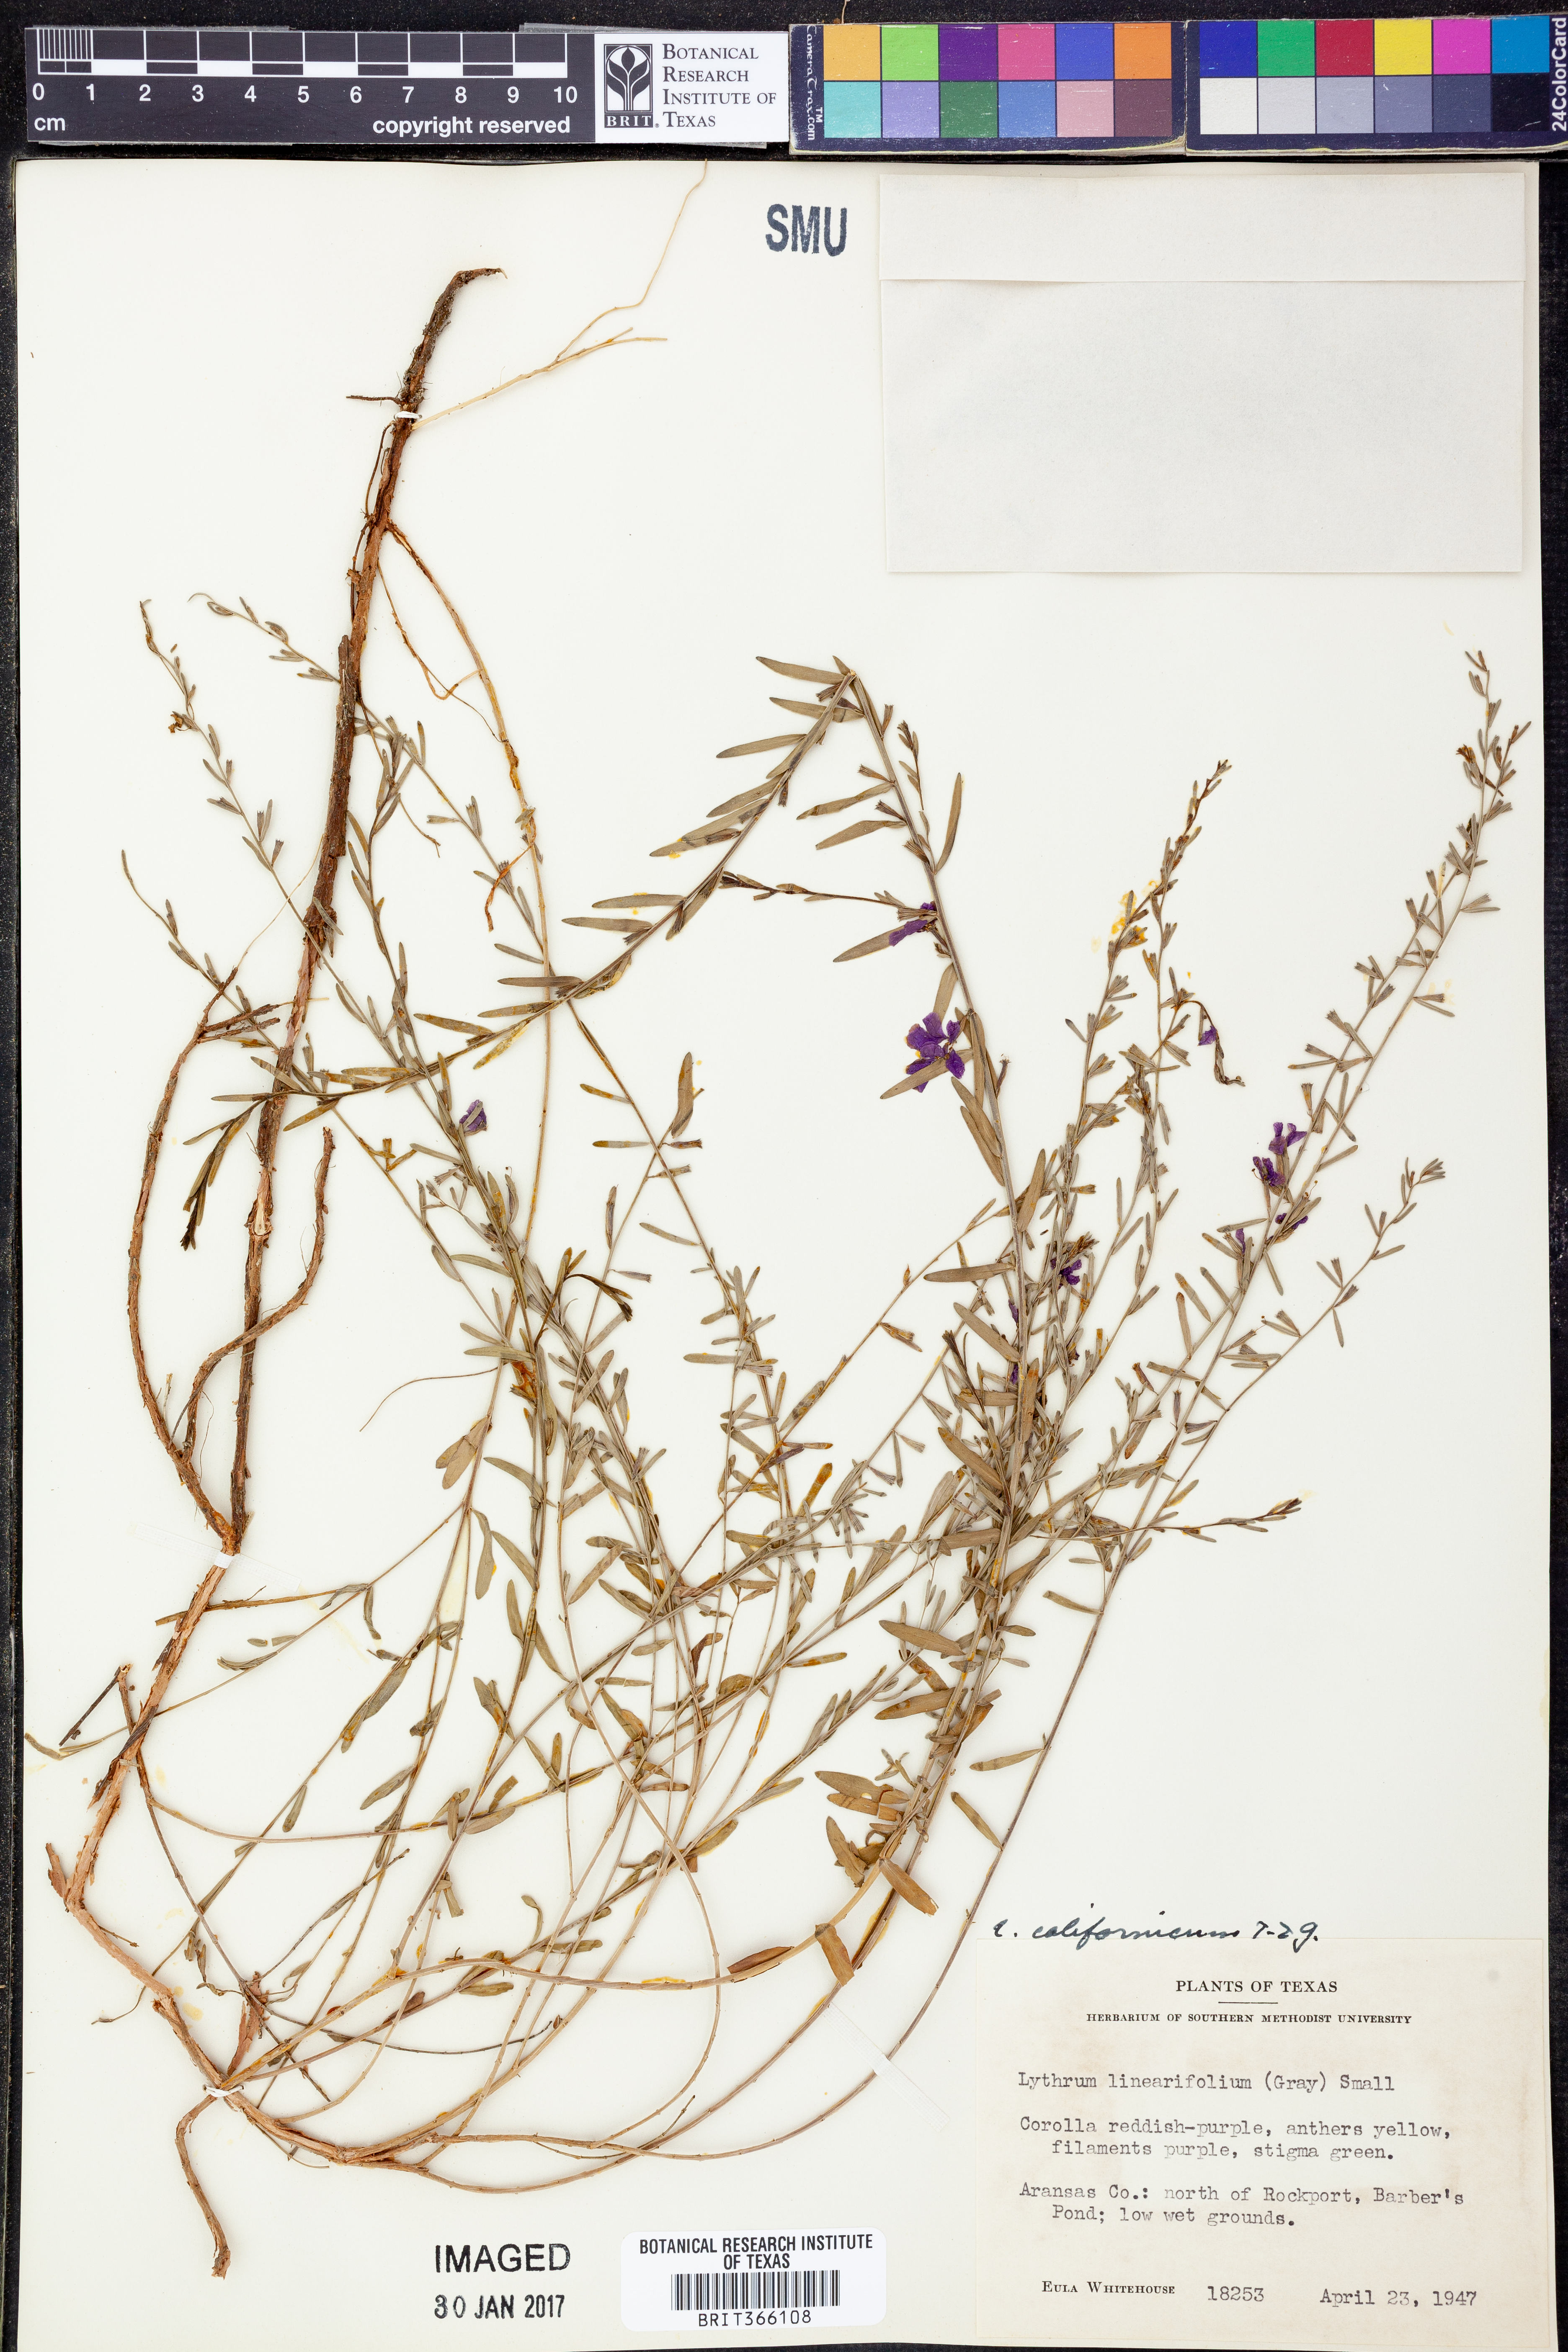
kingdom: Plantae
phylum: Tracheophyta
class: Magnoliopsida
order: Myrtales
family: Lythraceae
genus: Lythrum
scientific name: Lythrum californicum
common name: California loosestrife
